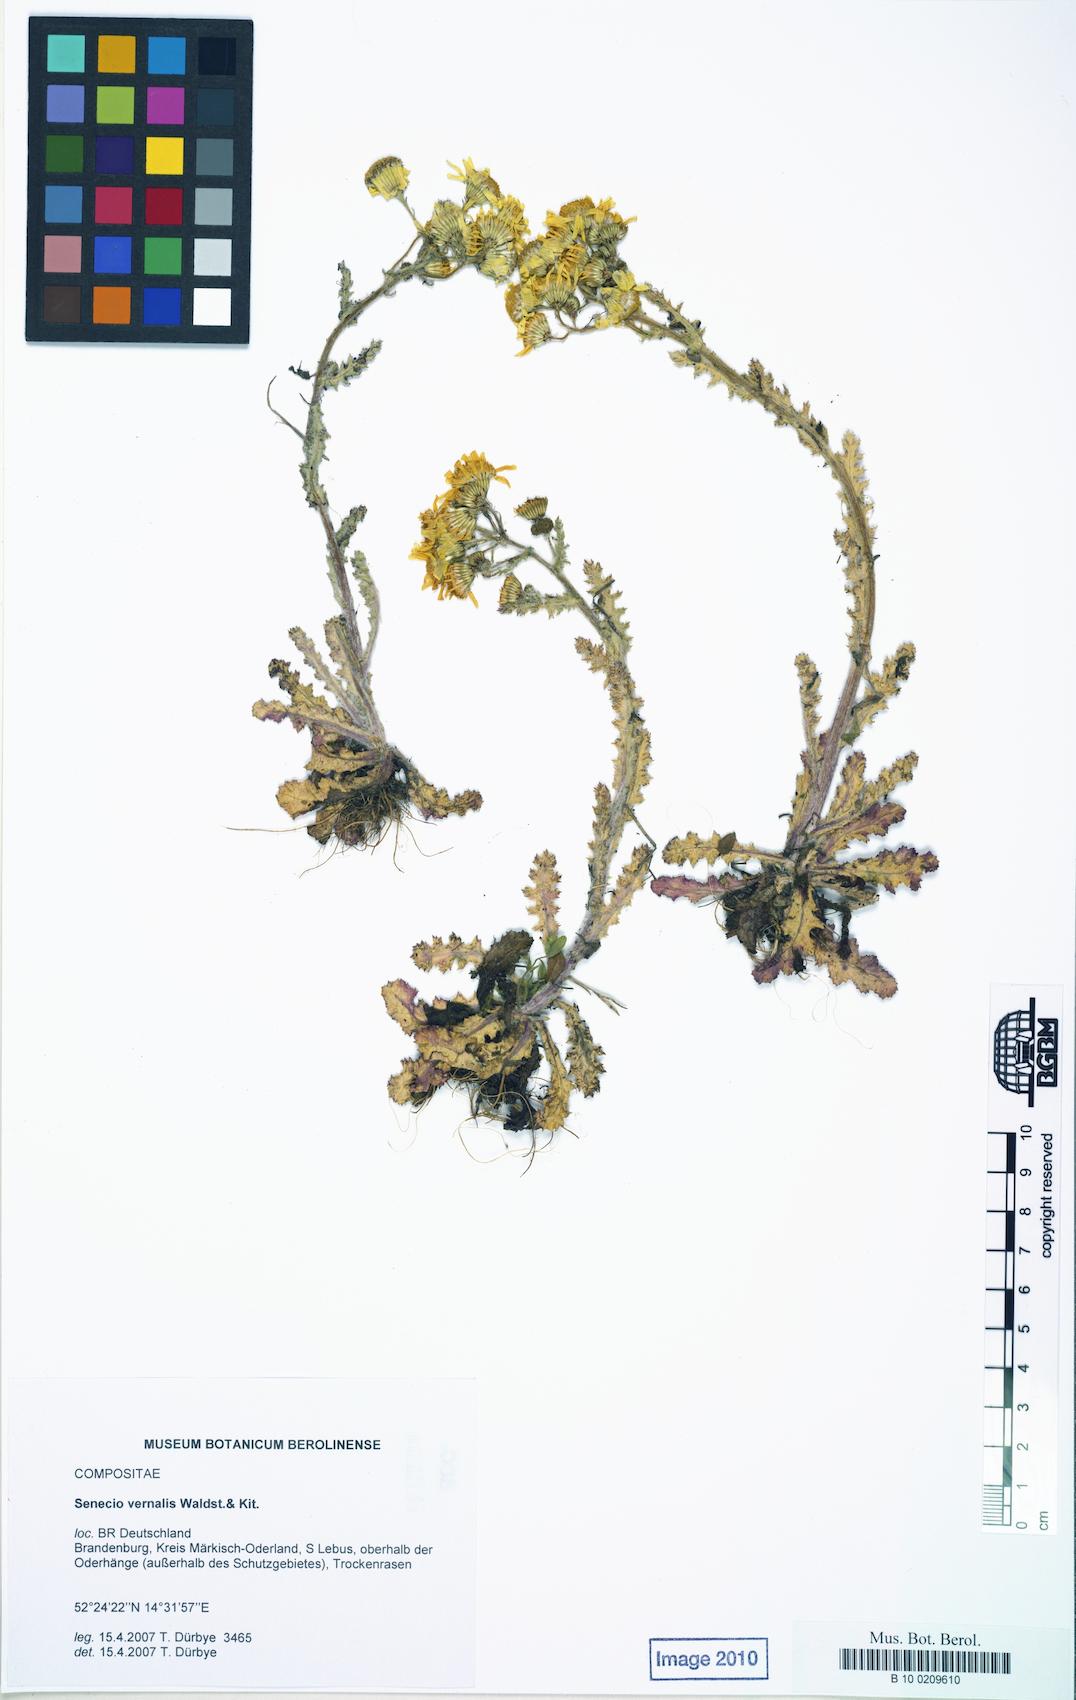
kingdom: Plantae
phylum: Tracheophyta
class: Magnoliopsida
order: Asterales
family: Asteraceae
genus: Senecio
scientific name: Senecio vernalis
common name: Eastern groundsel
